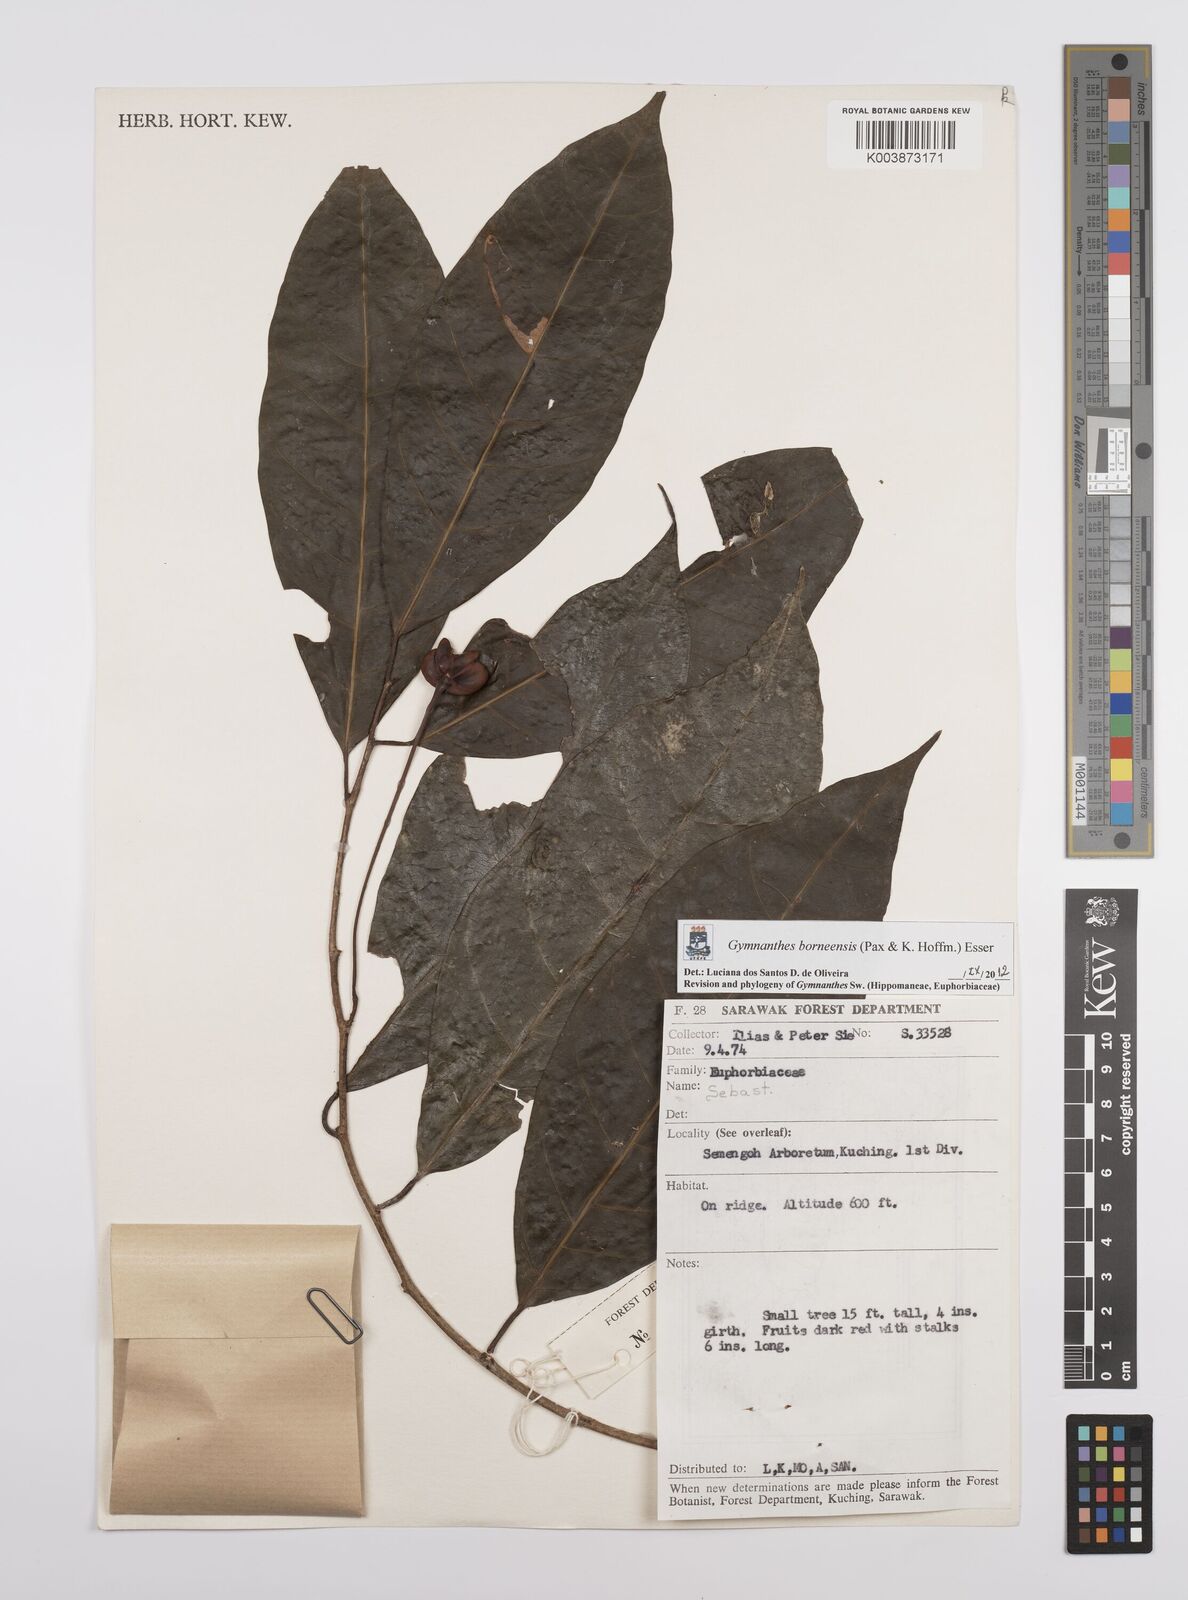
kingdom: Plantae
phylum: Tracheophyta
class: Magnoliopsida
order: Malpighiales
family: Euphorbiaceae
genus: Gymnanthes
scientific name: Gymnanthes borneensis
